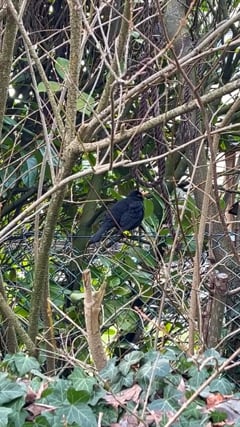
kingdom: Animalia
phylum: Chordata
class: Aves
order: Passeriformes
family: Turdidae
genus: Turdus
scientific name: Turdus merula
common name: Common blackbird
